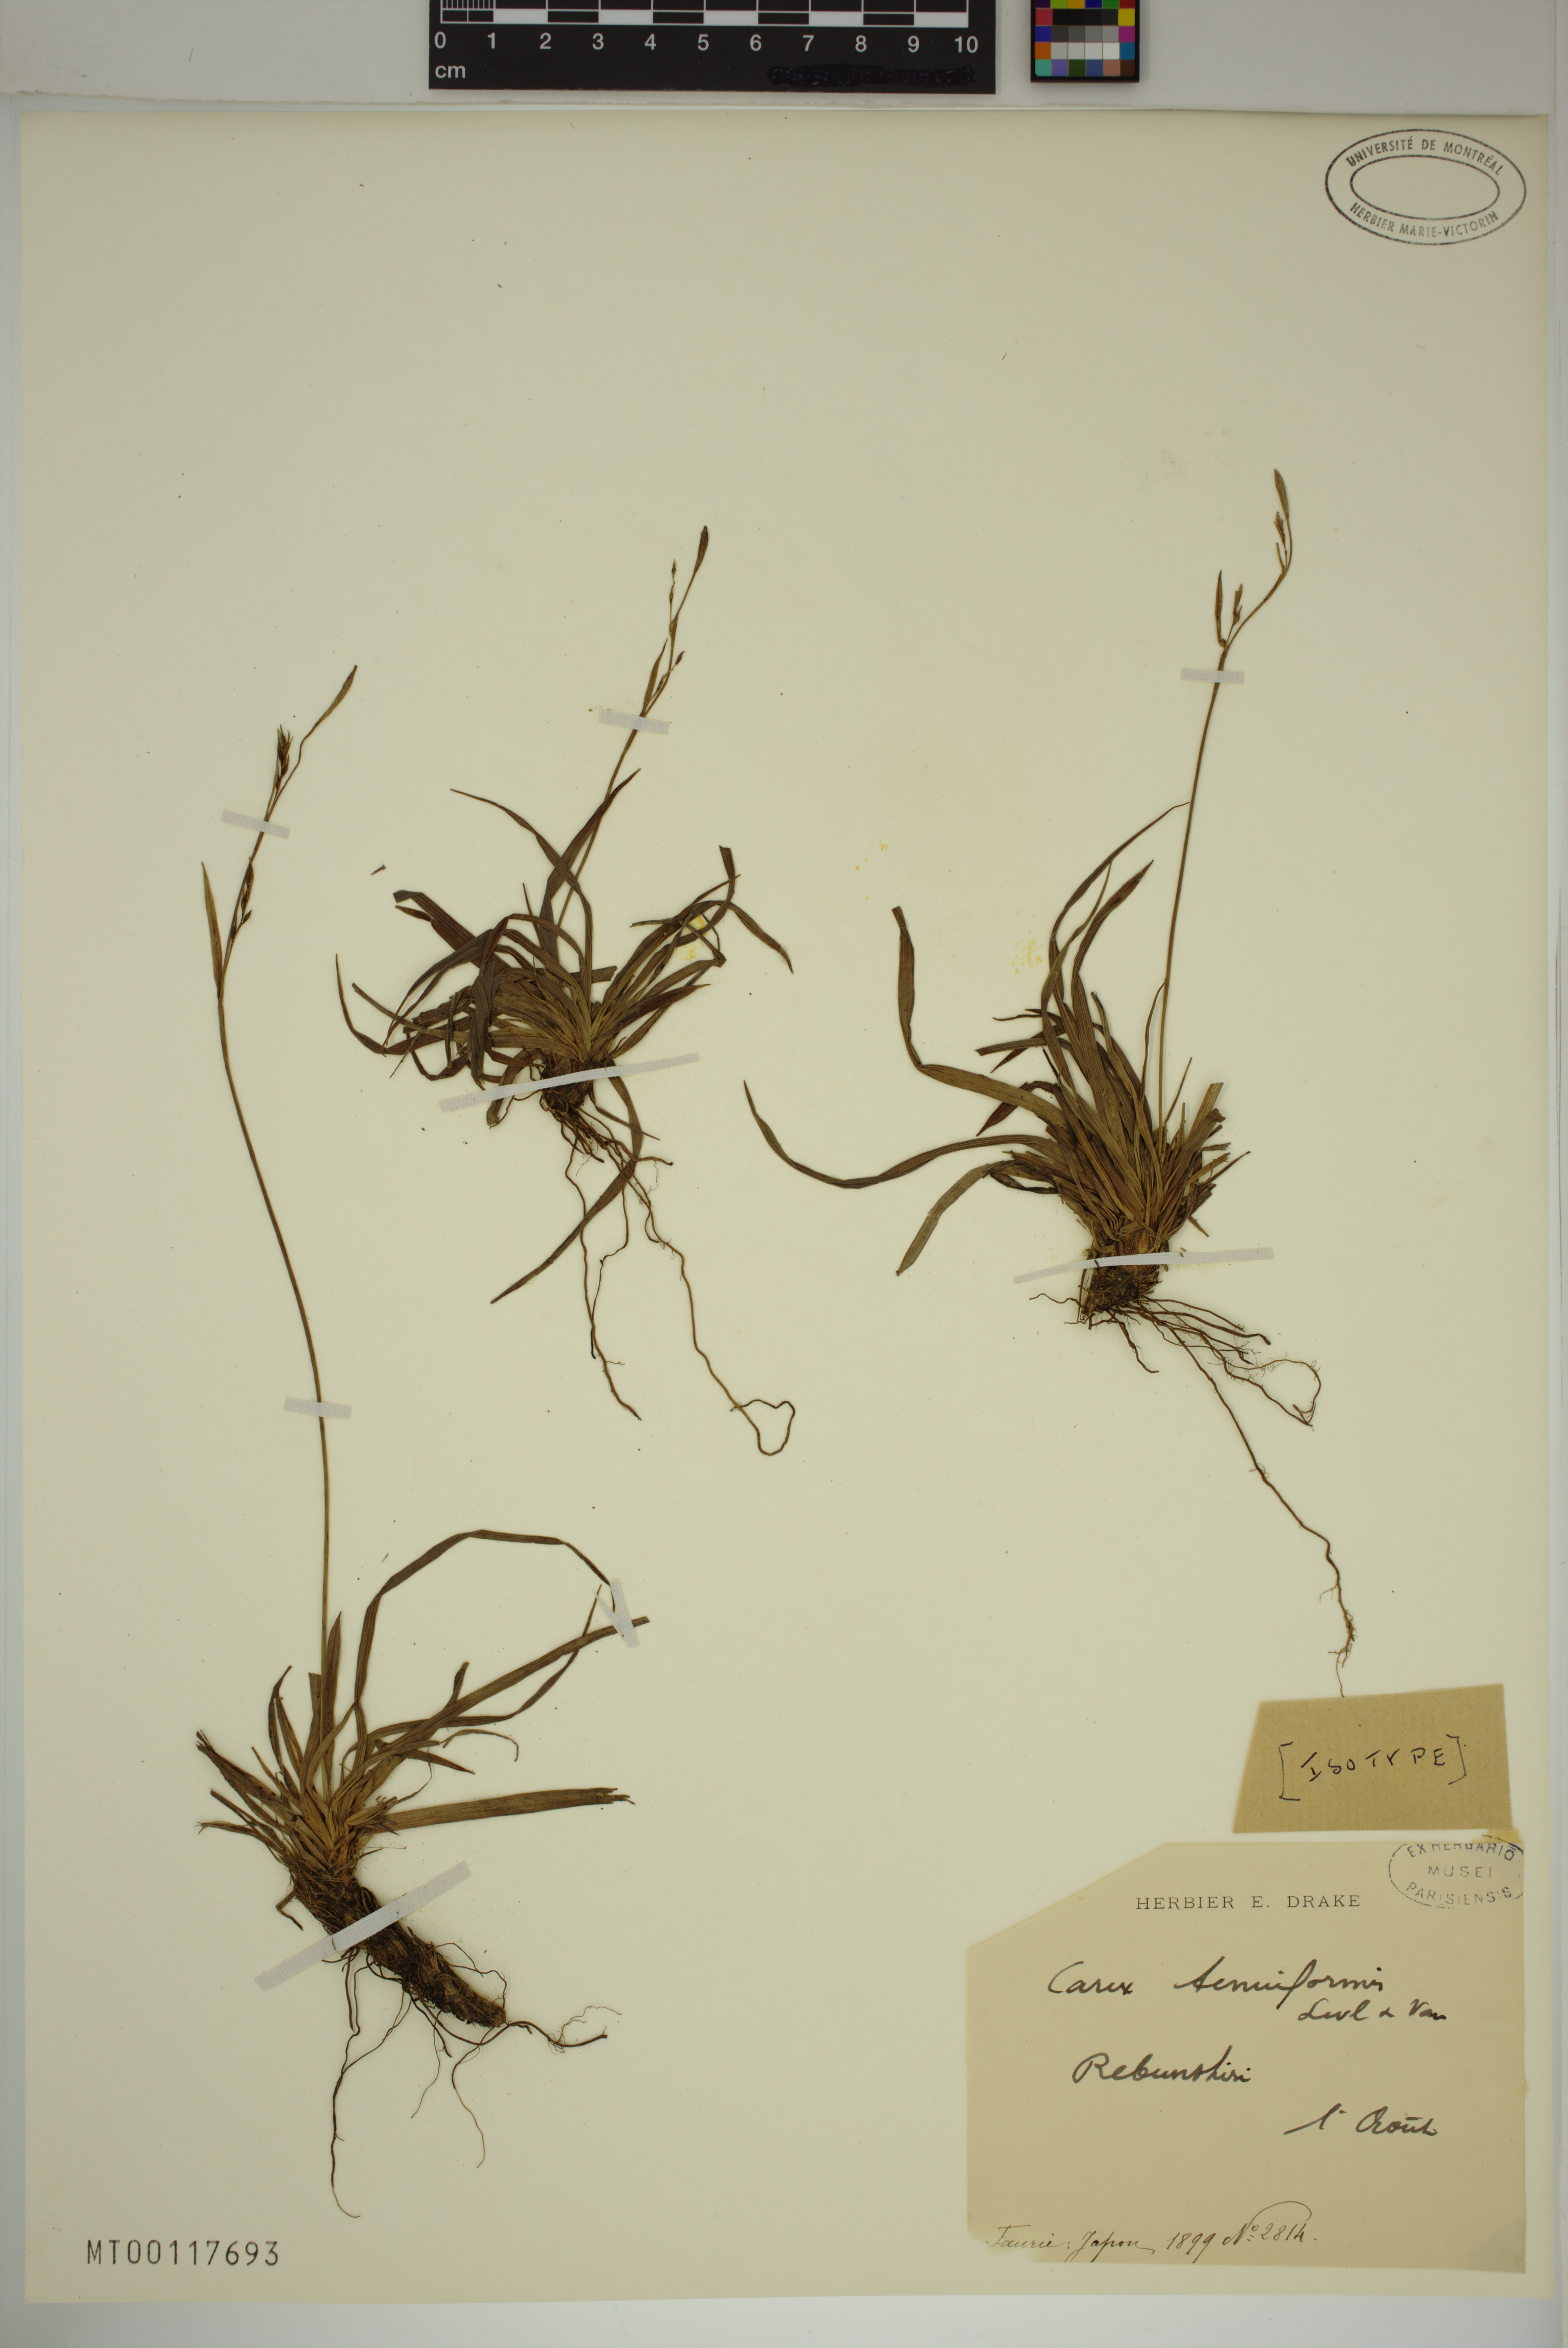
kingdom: Plantae
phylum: Tracheophyta
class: Liliopsida
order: Poales
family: Cyperaceae
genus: Carex
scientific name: Carex tenuiformis
